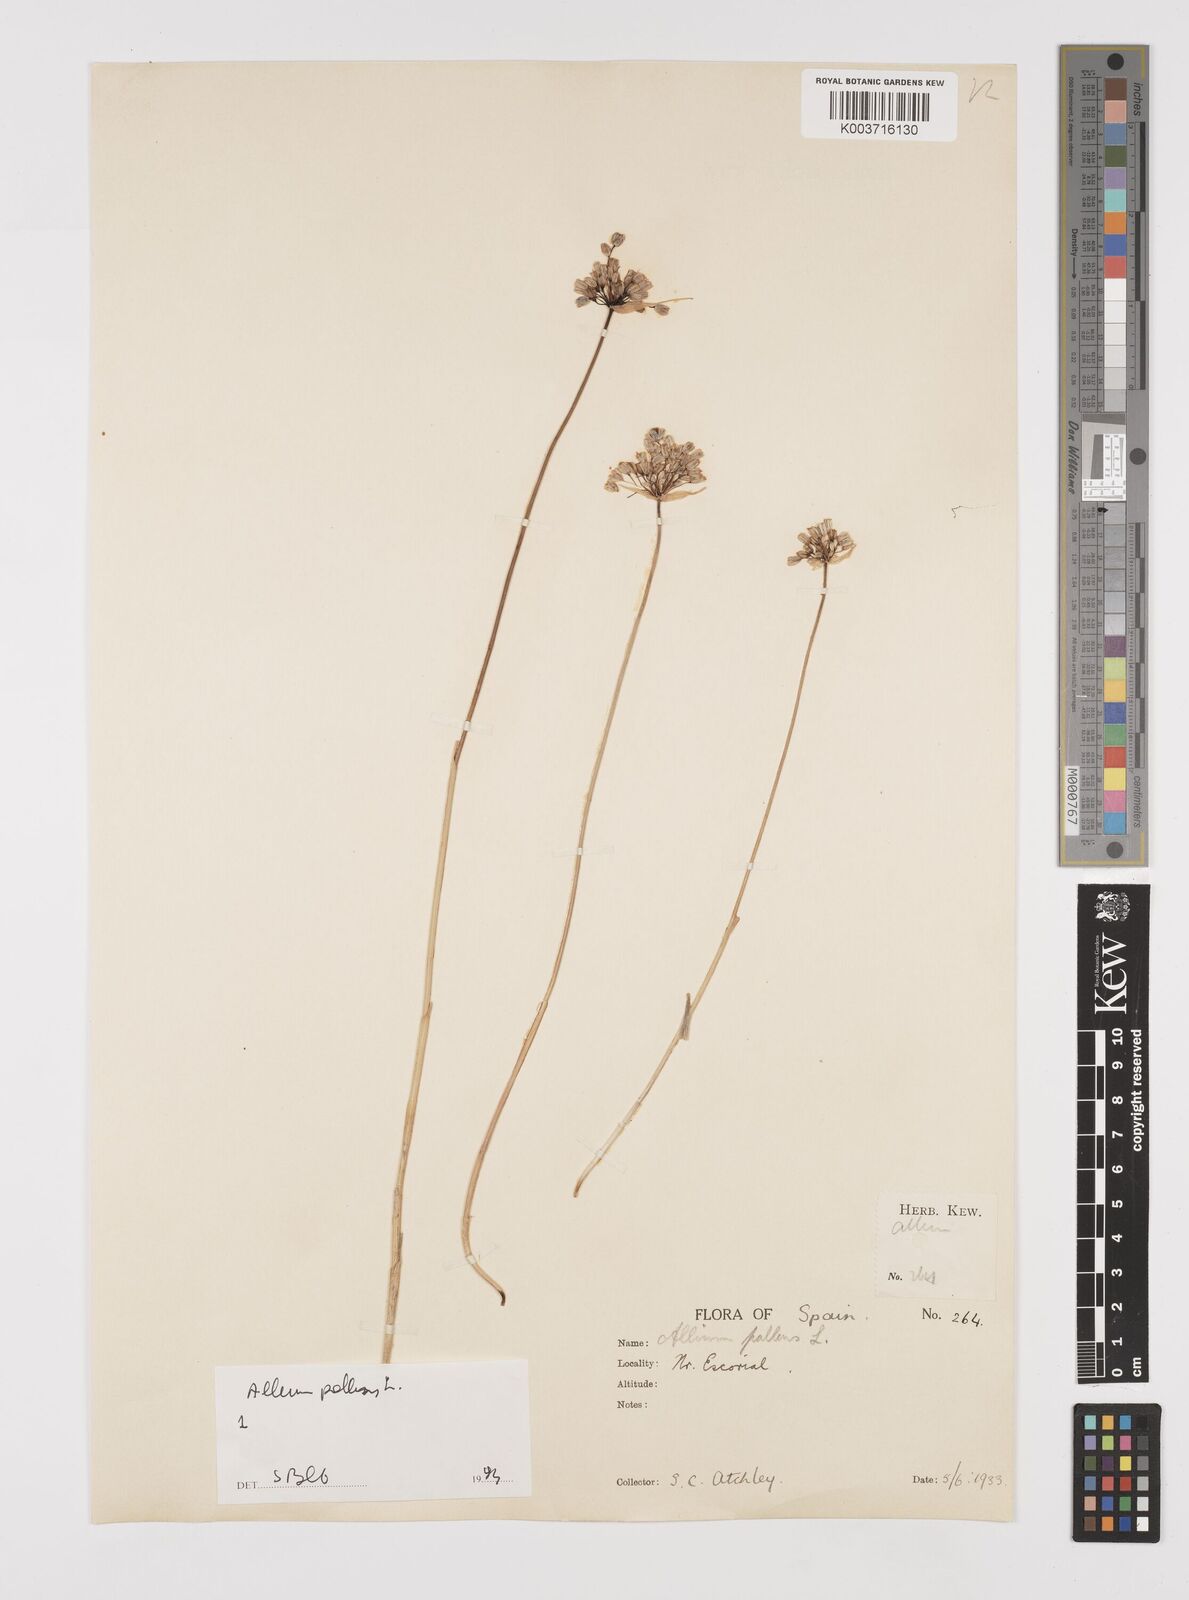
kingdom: Plantae
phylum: Tracheophyta
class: Liliopsida
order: Asparagales
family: Amaryllidaceae
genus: Allium
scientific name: Allium pallens
